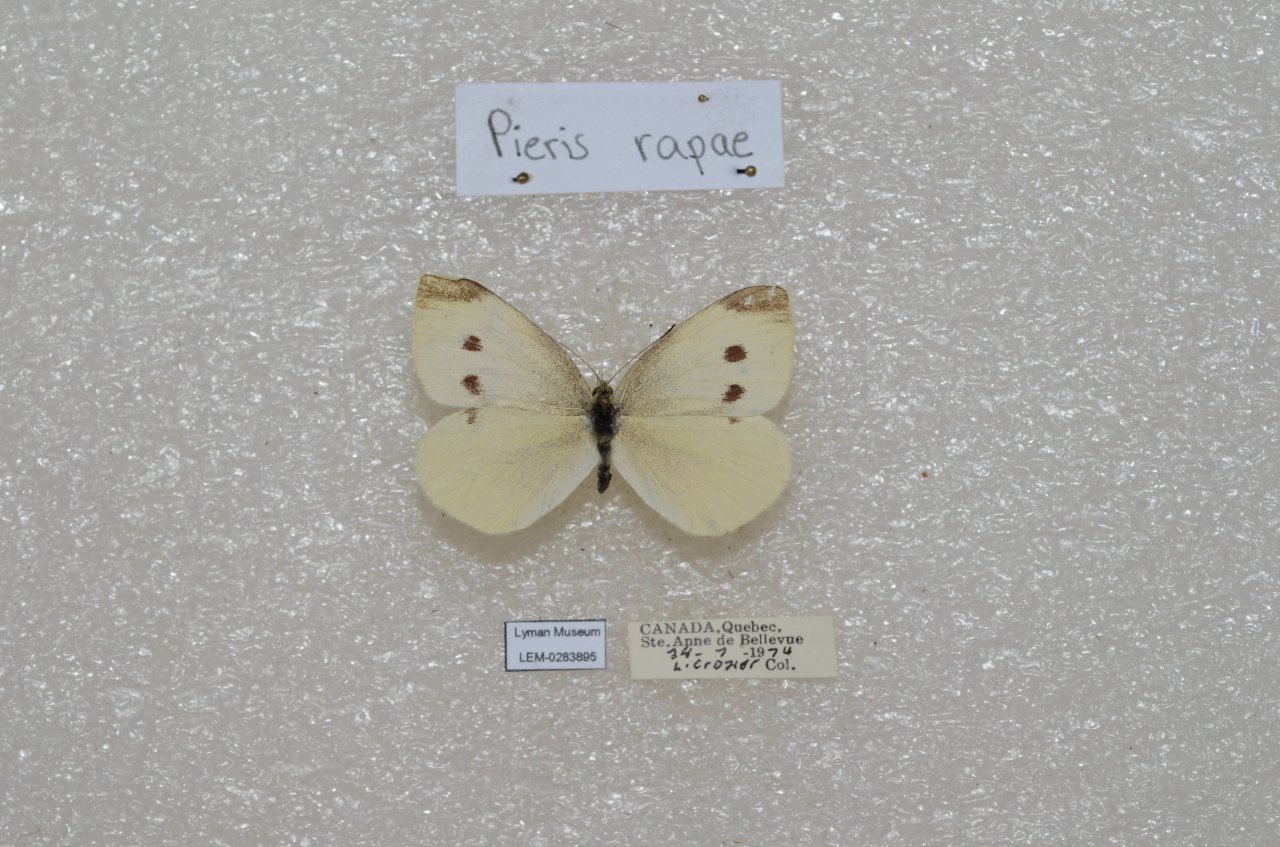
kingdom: Animalia
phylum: Arthropoda
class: Insecta
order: Lepidoptera
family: Pieridae
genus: Pieris
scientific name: Pieris rapae
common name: Cabbage White
